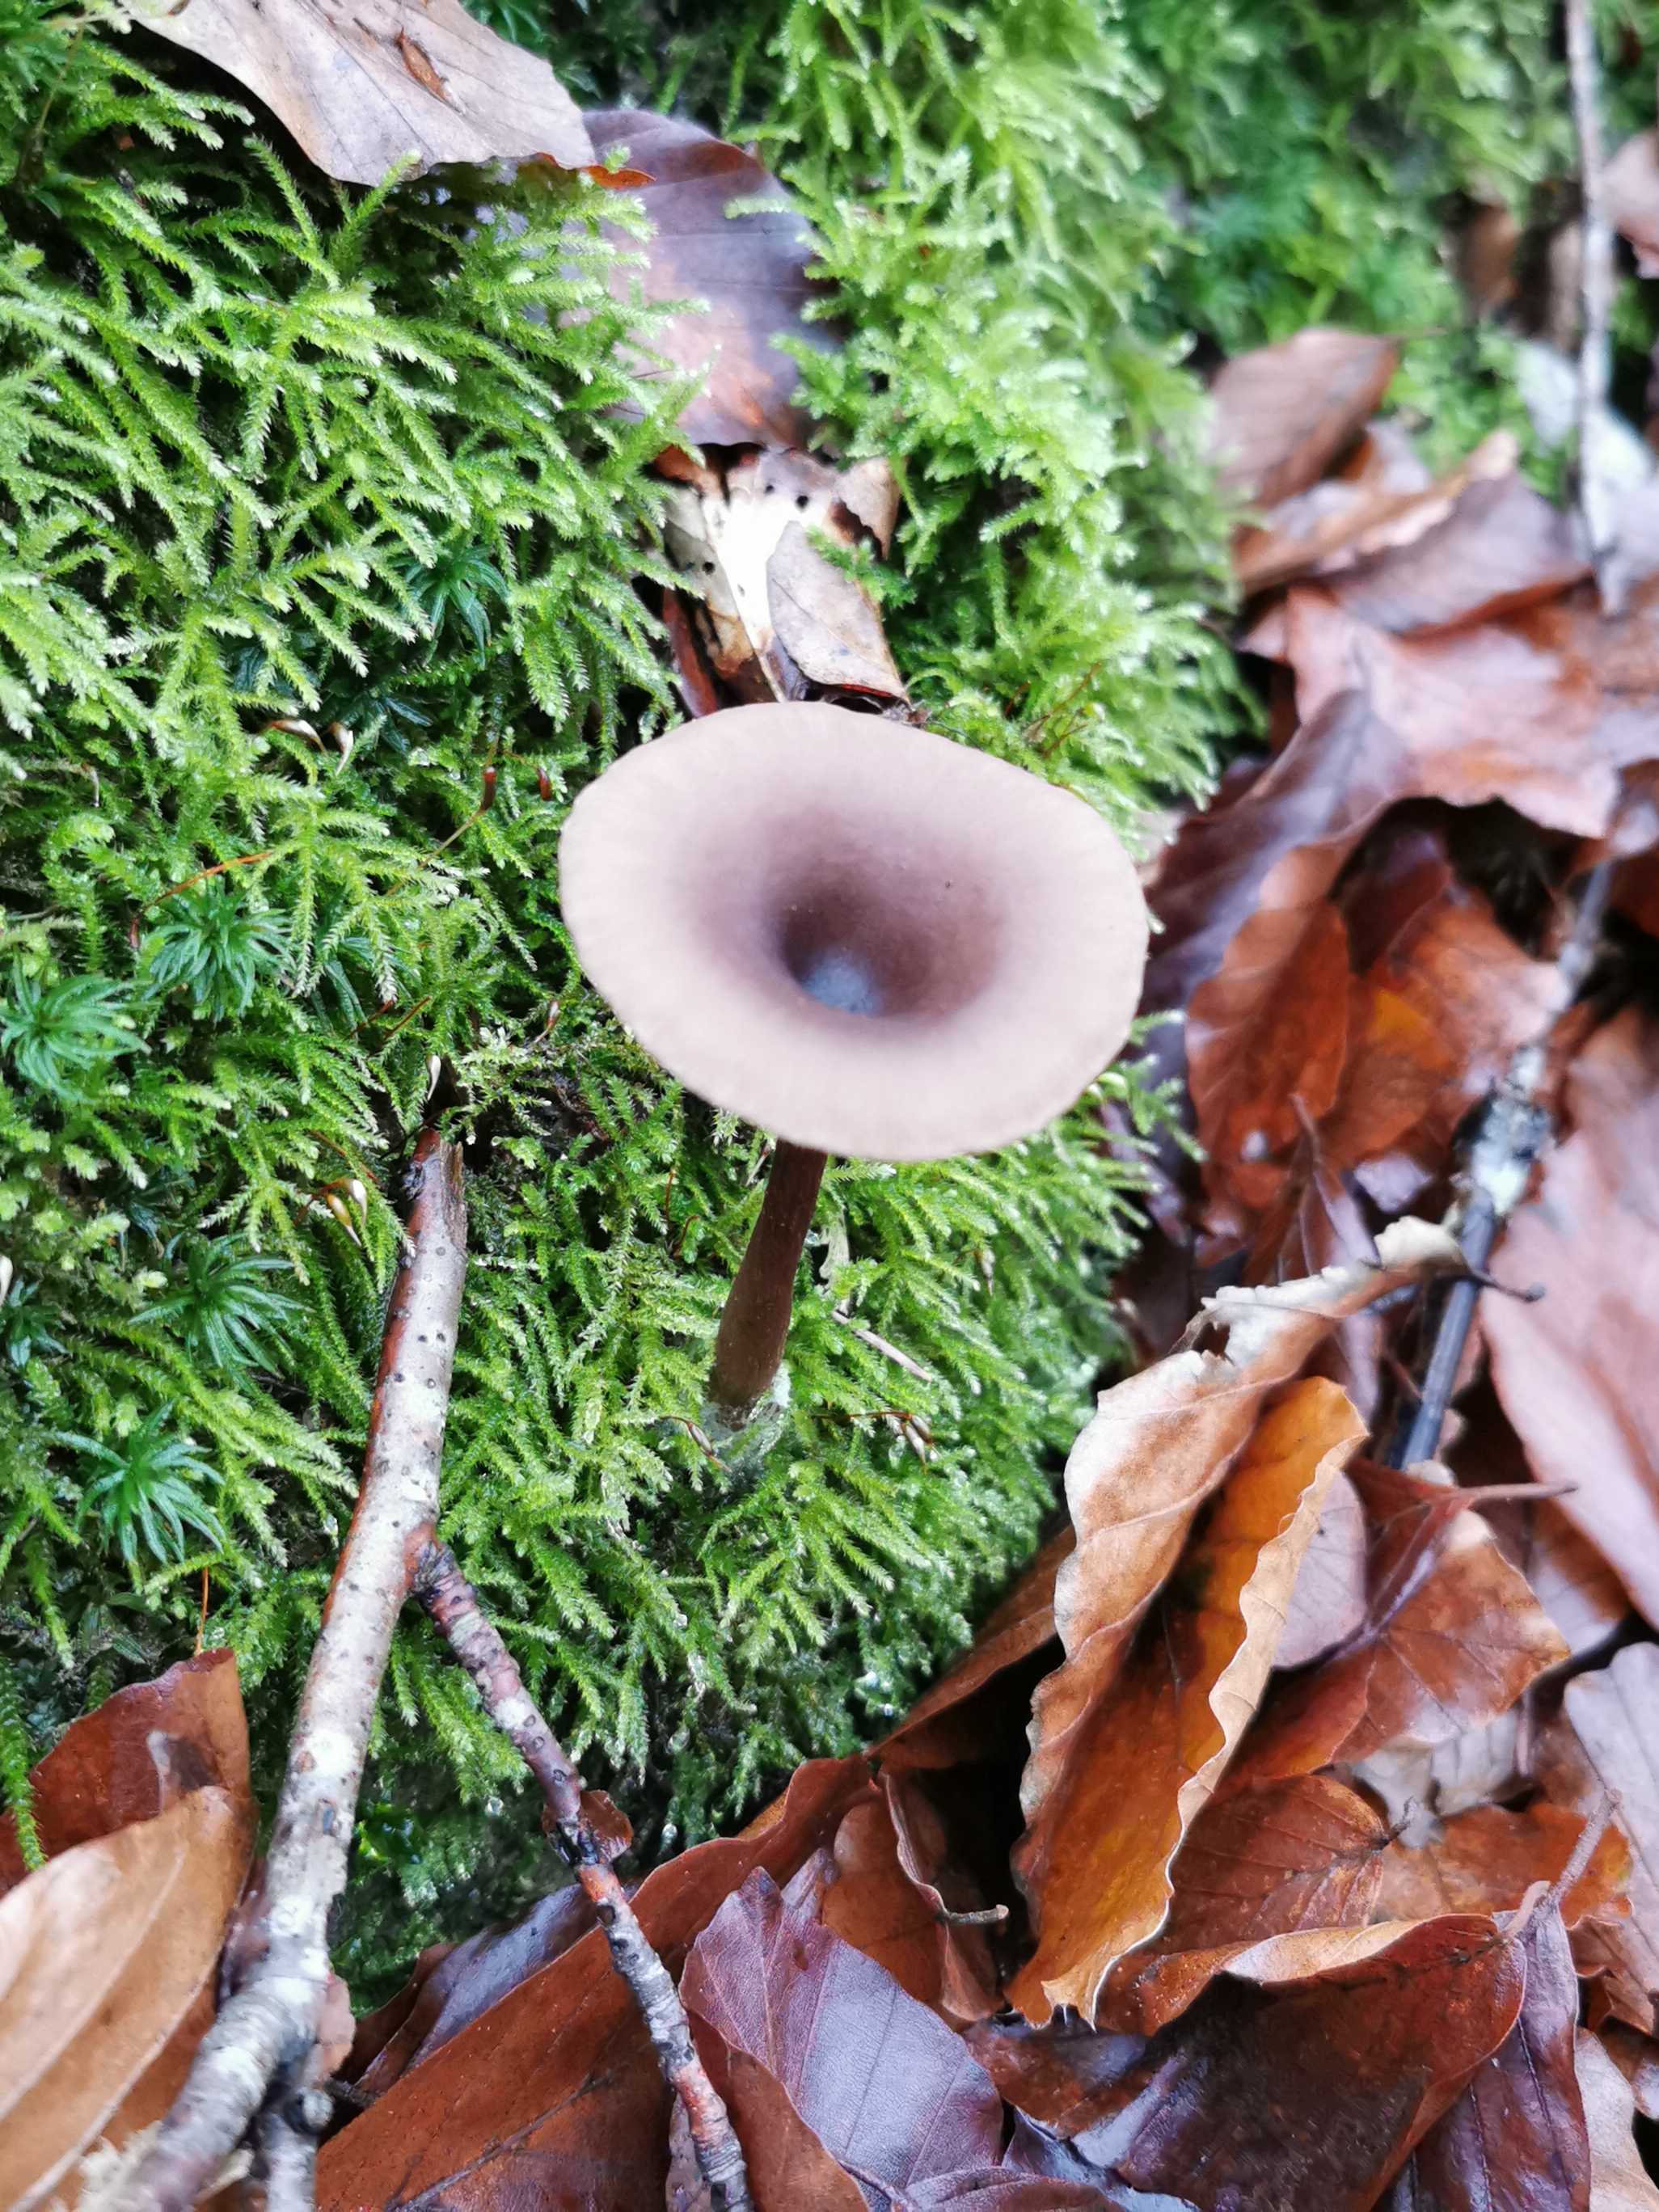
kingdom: Fungi
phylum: Basidiomycota
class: Agaricomycetes
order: Agaricales
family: Pseudoclitocybaceae
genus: Pseudoclitocybe
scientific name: Pseudoclitocybe cyathiformis
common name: almindelig bægertragthat
